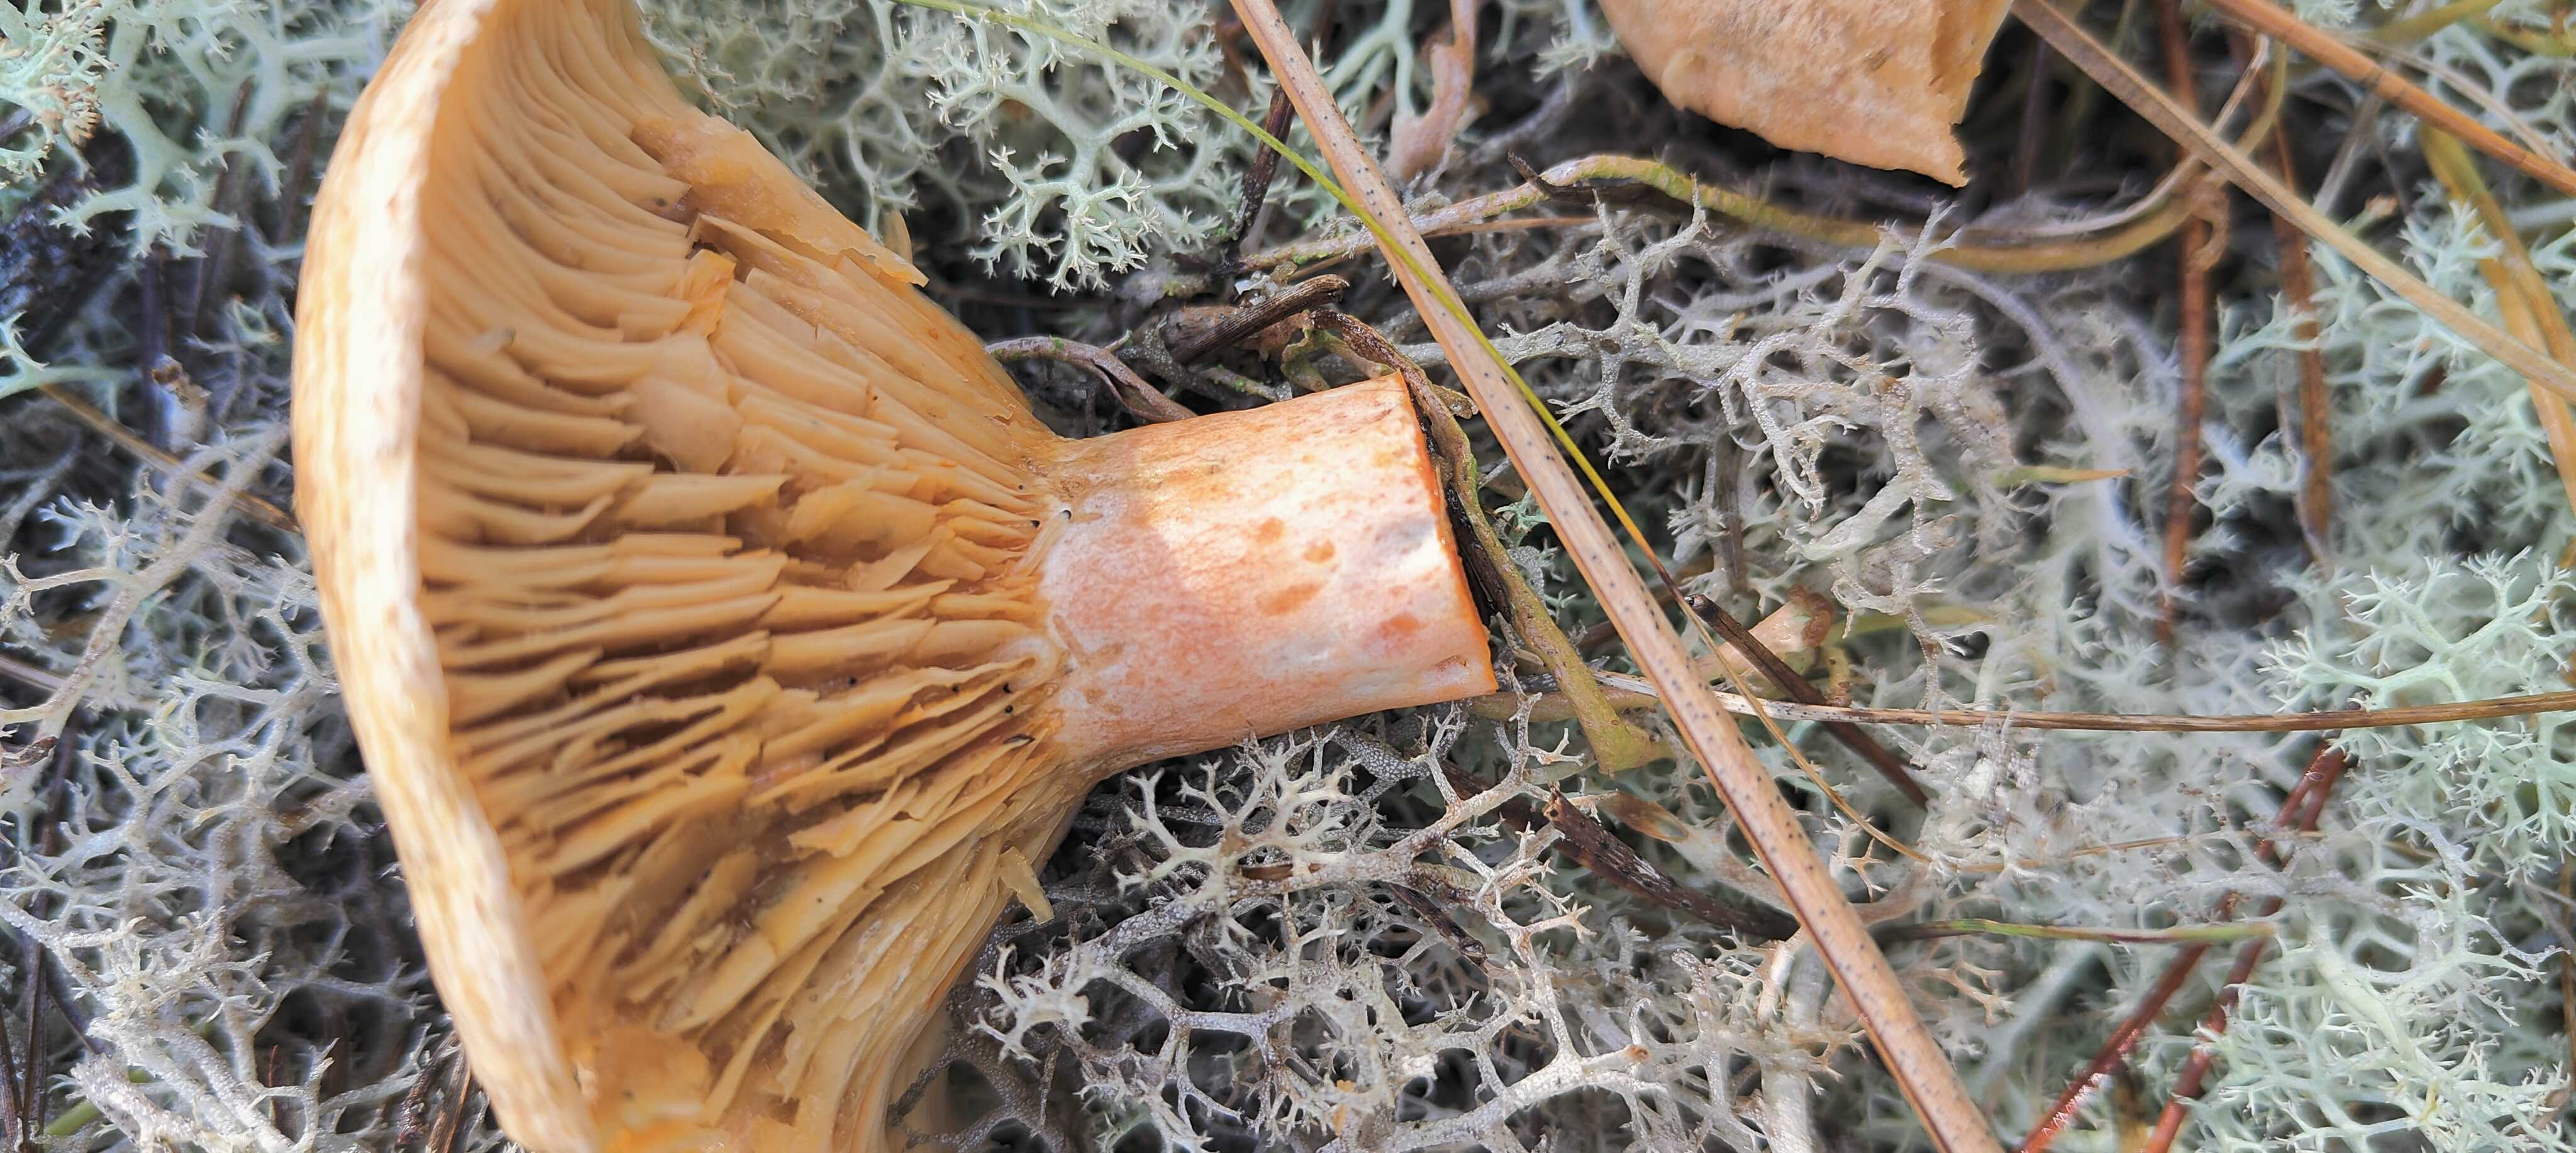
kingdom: Fungi
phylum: Basidiomycota
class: Agaricomycetes
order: Russulales
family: Russulaceae
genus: Lactarius
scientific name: Lactarius deliciosus
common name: velsmagende mælkehat
